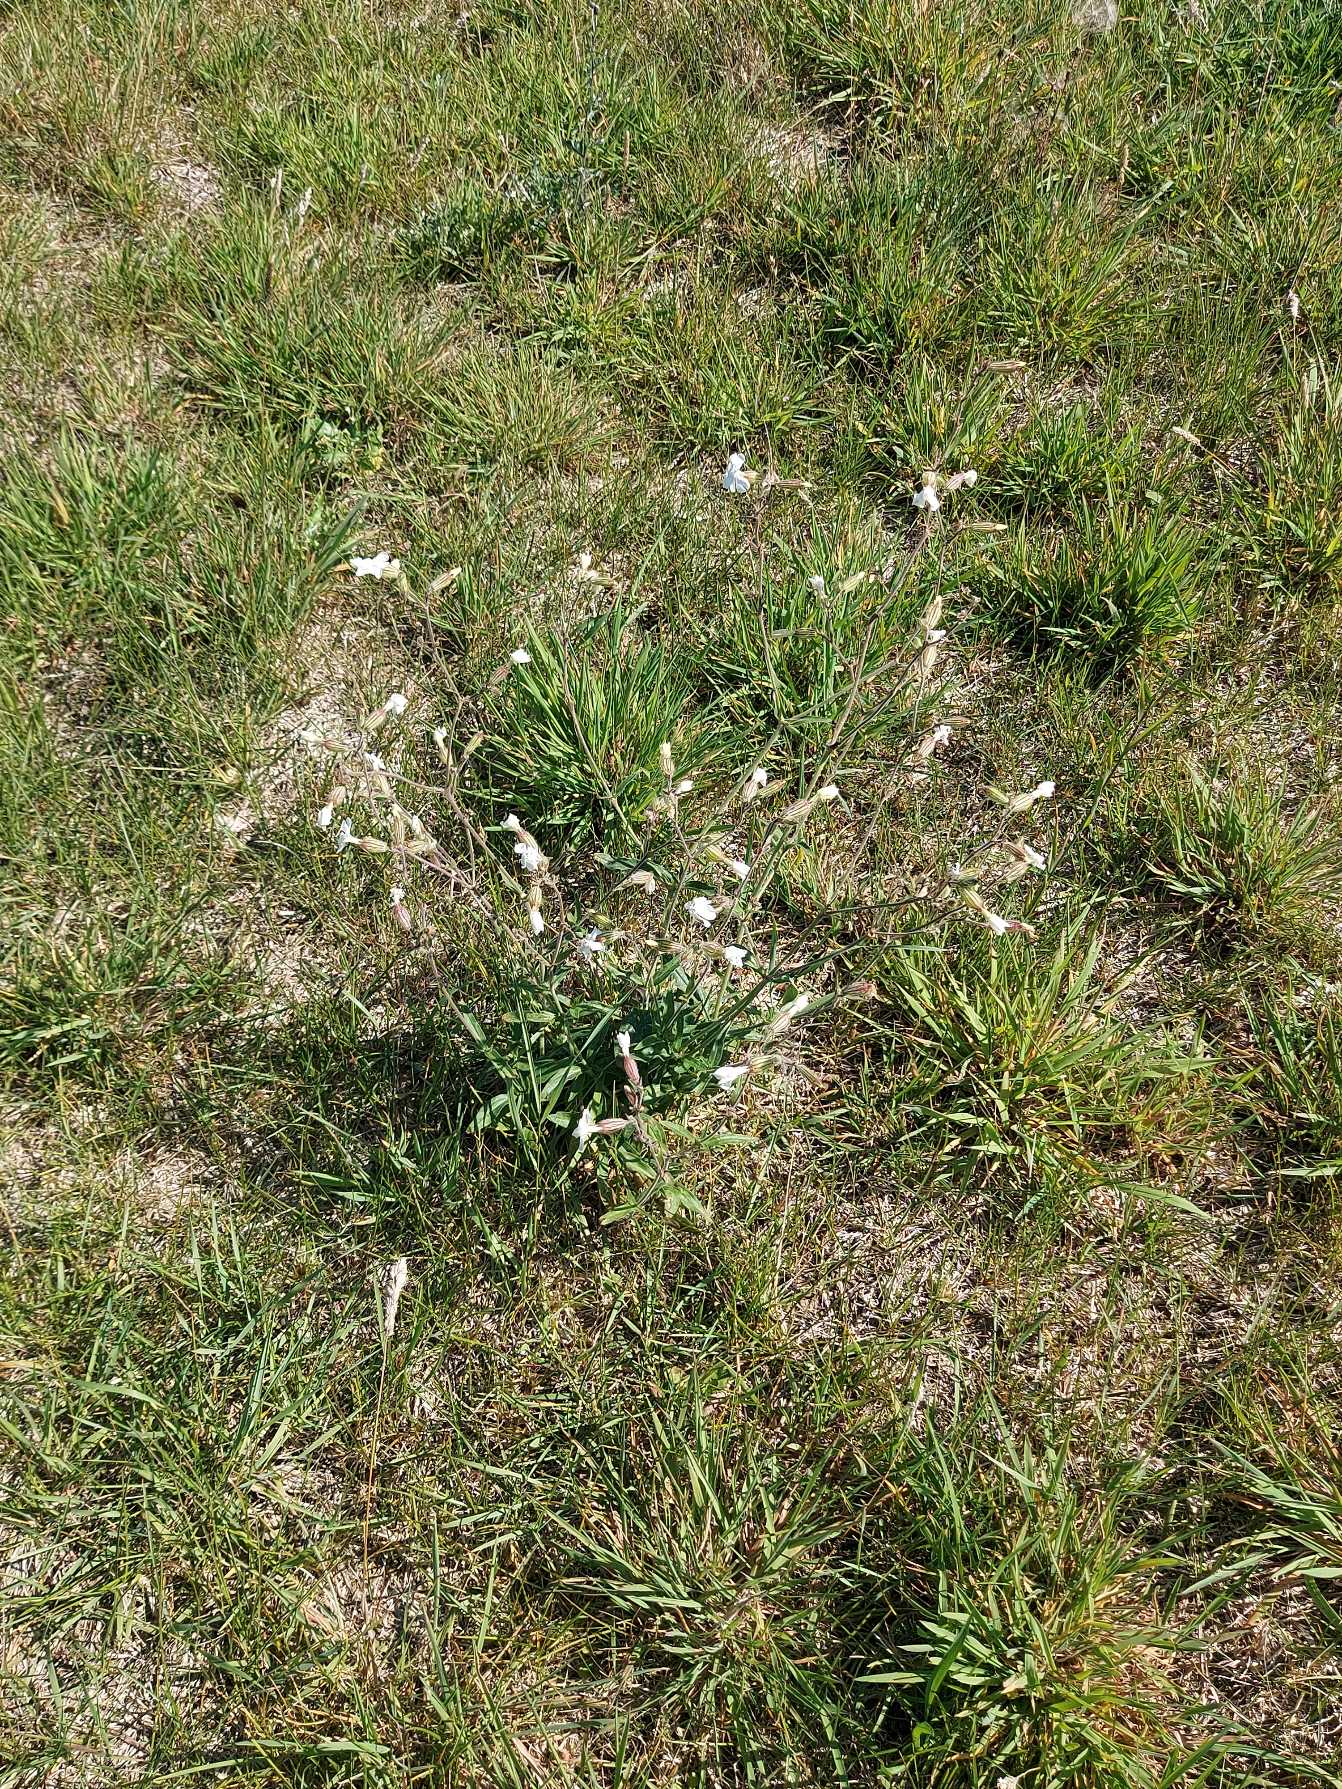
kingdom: Plantae
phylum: Tracheophyta
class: Magnoliopsida
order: Caryophyllales
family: Caryophyllaceae
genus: Silene
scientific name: Silene latifolia
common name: Aftenpragtstjerne (underart)
